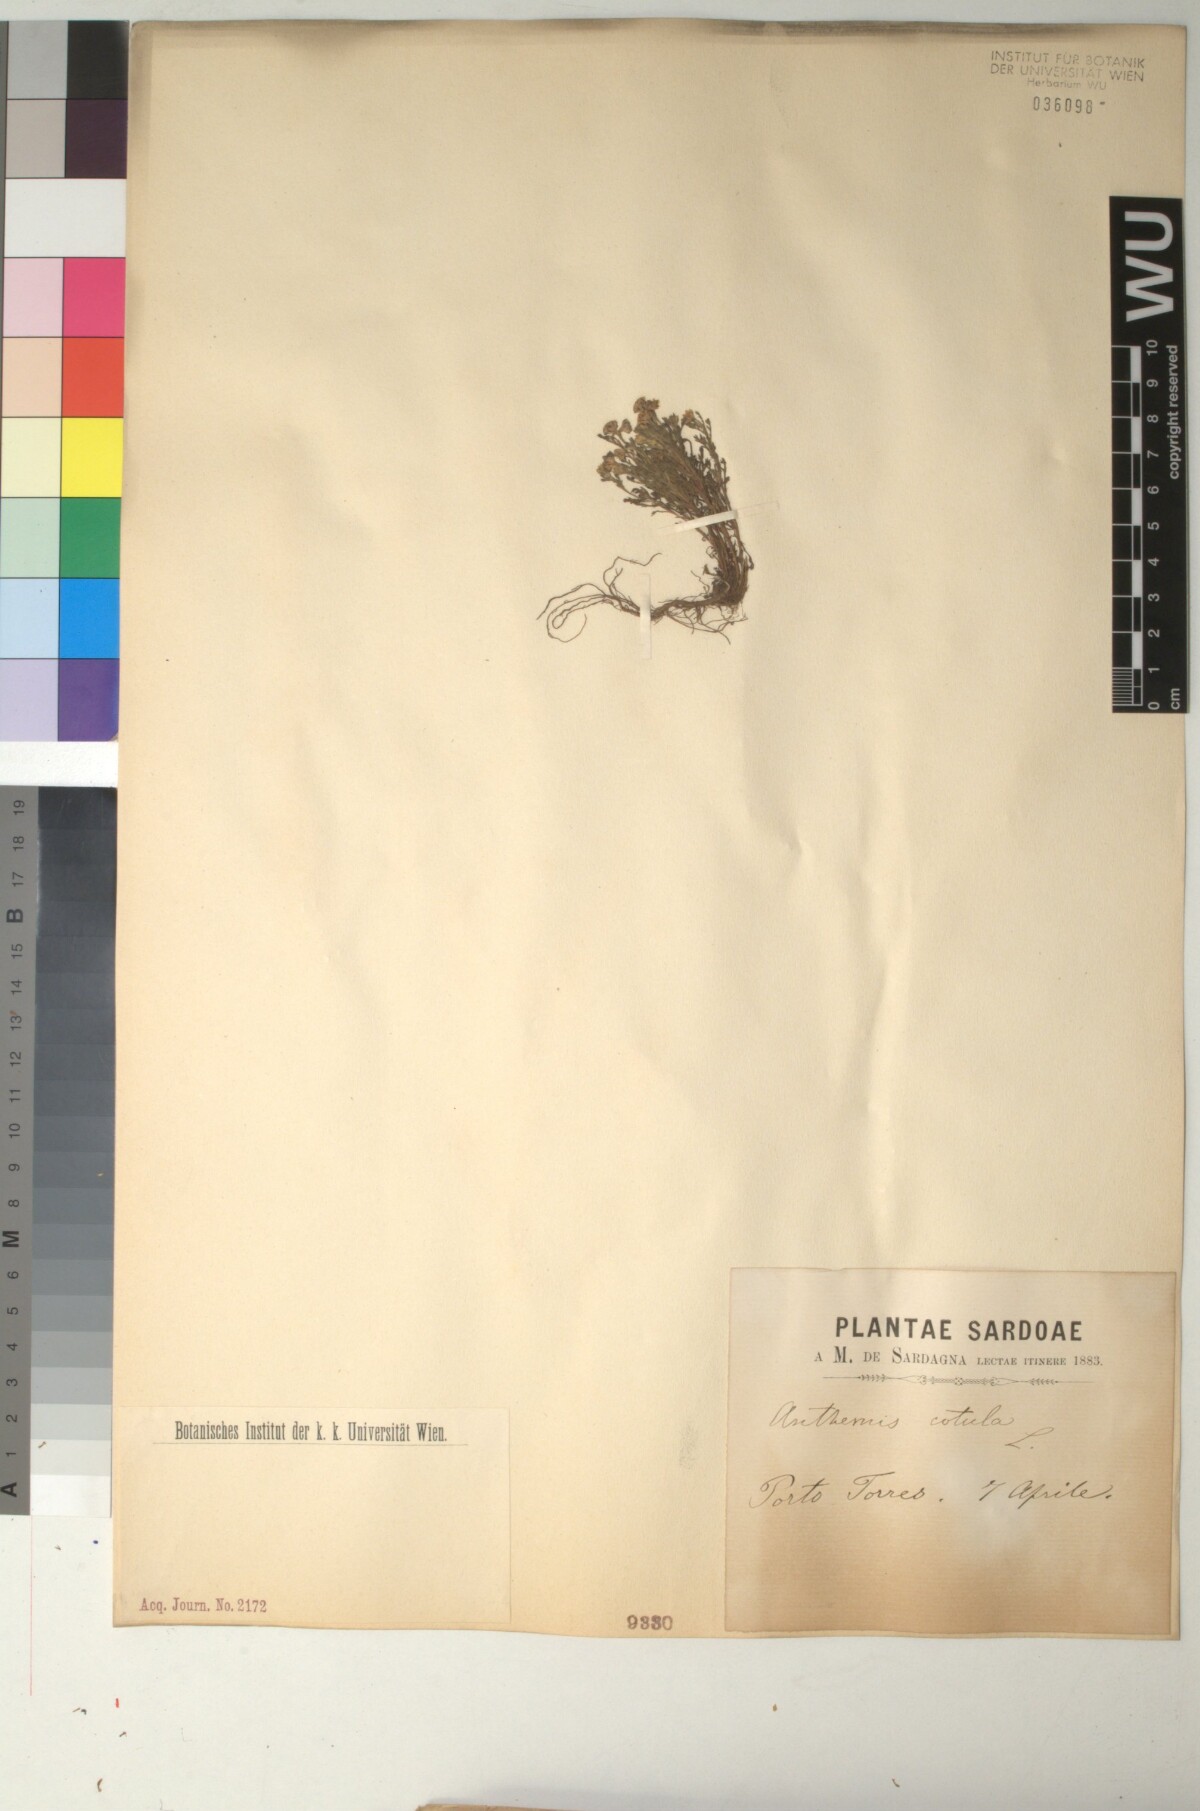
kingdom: Plantae
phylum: Tracheophyta
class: Magnoliopsida
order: Asterales
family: Asteraceae
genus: Anthemis
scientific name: Anthemis cotula
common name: Stinking chamomile
